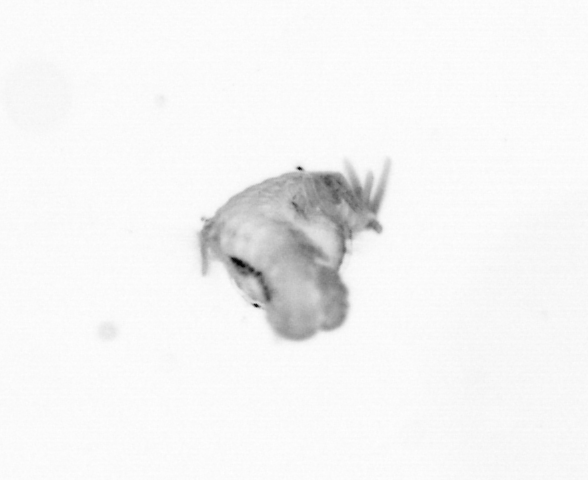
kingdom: Animalia
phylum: Annelida
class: Polychaeta
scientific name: Polychaeta
